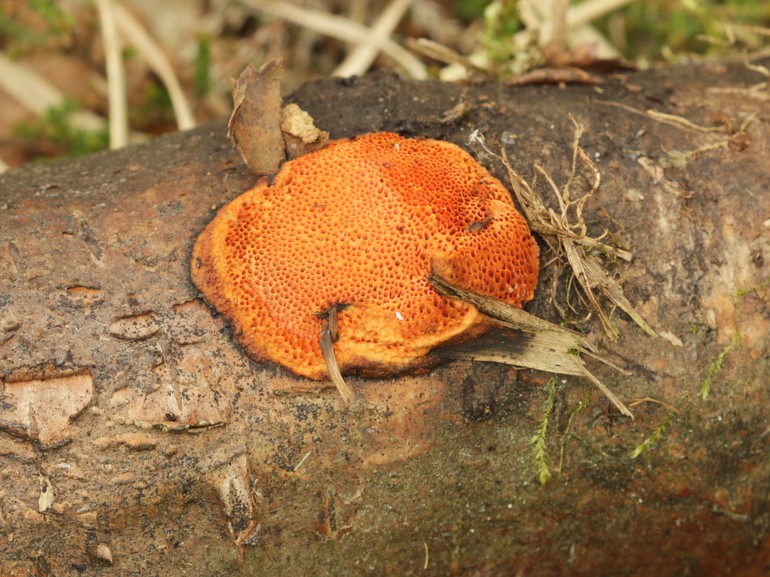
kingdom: Fungi
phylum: Basidiomycota
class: Agaricomycetes
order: Polyporales
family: Polyporaceae
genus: Trametes
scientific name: Trametes cinnabarina
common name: cinnoberporesvamp
